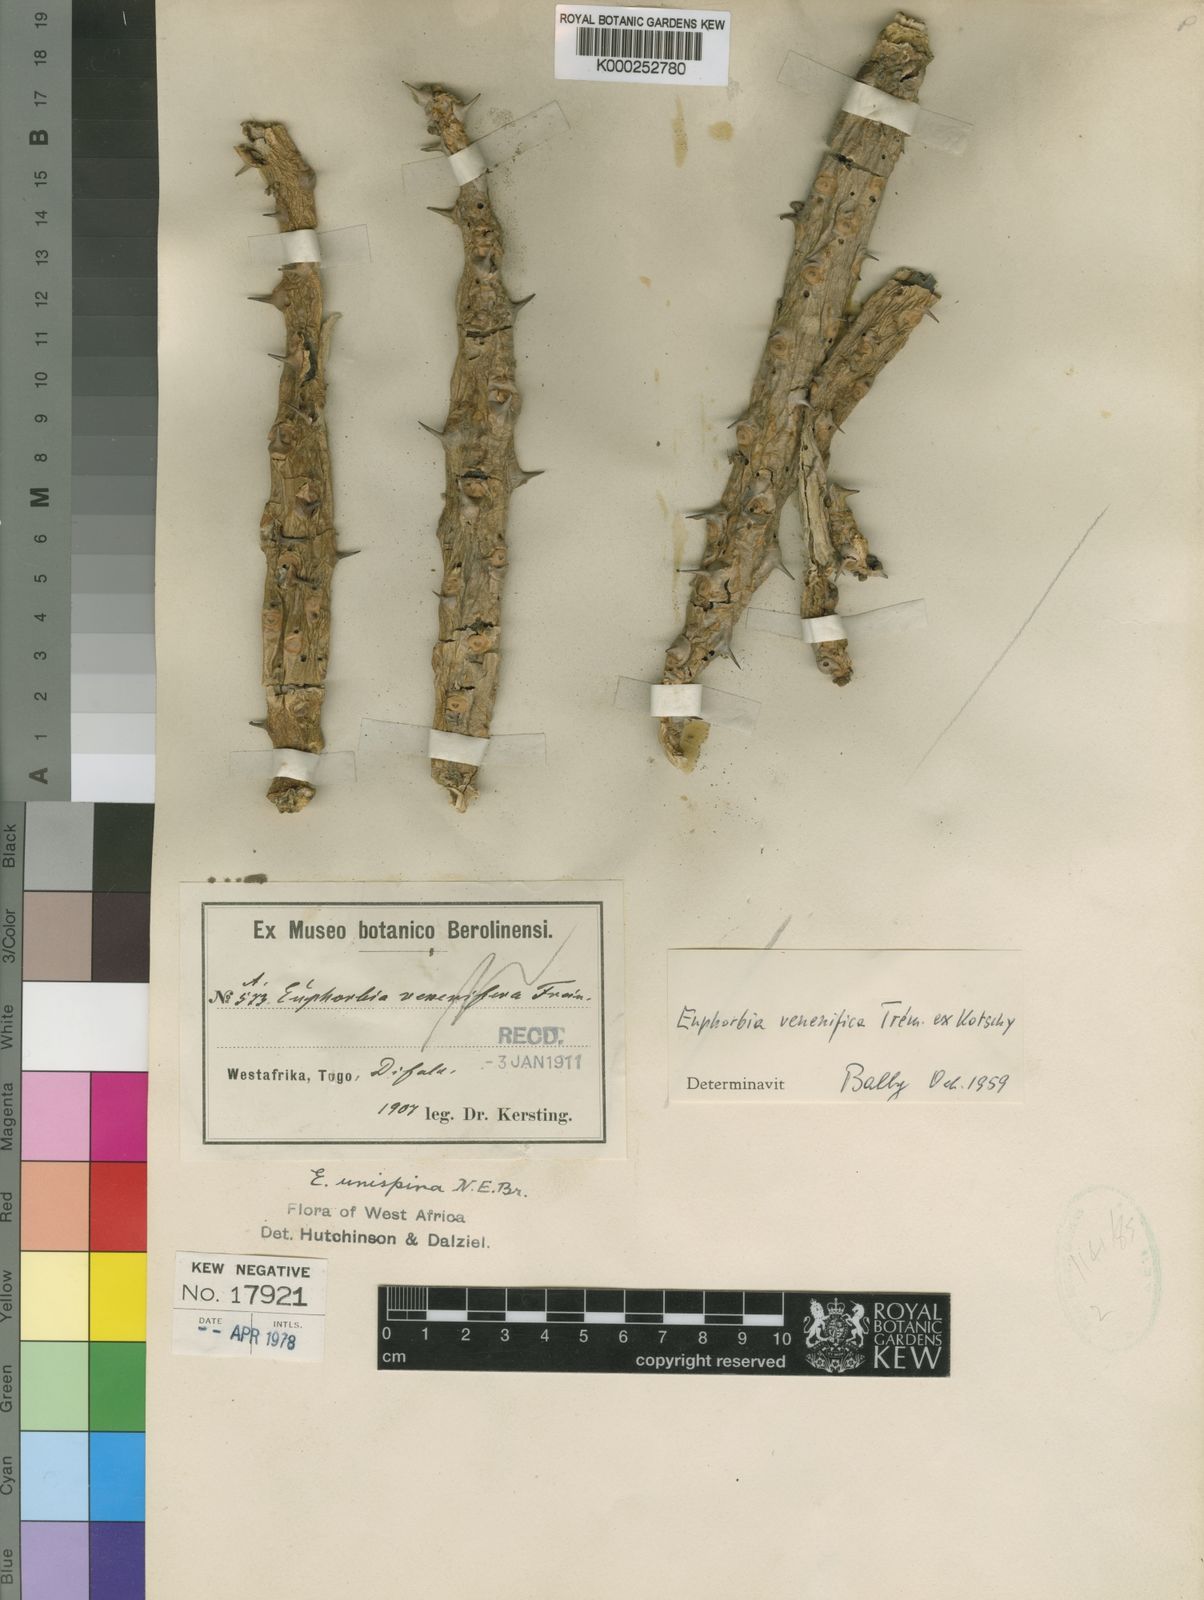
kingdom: Plantae
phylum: Tracheophyta
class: Magnoliopsida
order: Malpighiales
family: Euphorbiaceae
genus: Euphorbia
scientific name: Euphorbia unispina
